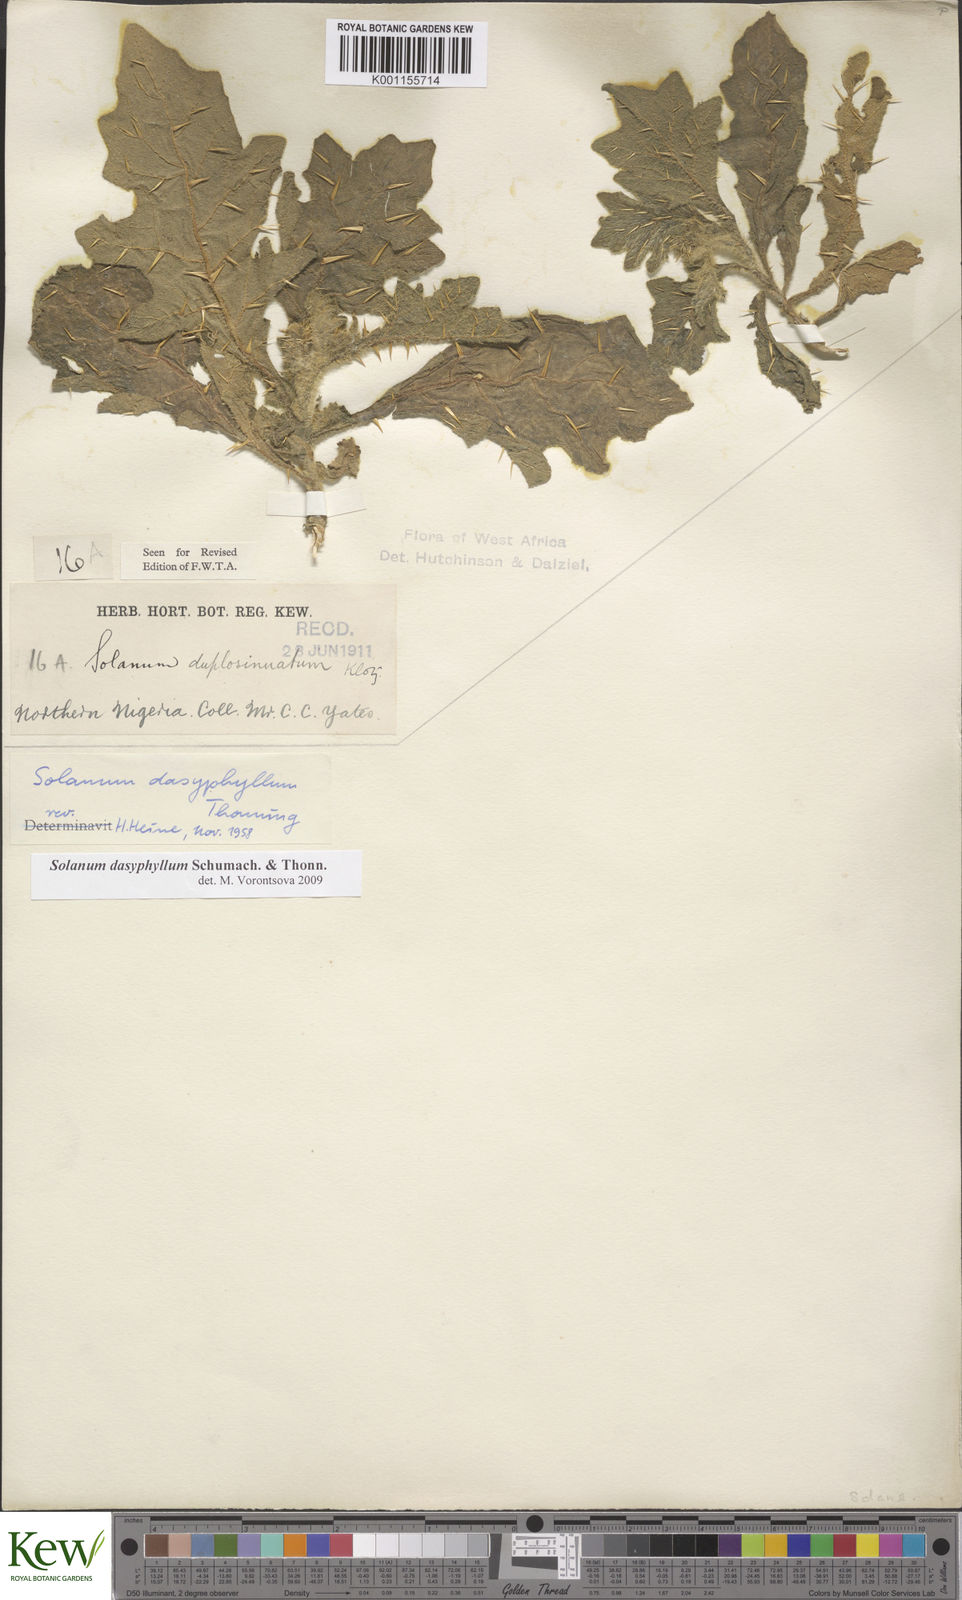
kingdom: Plantae
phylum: Tracheophyta
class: Magnoliopsida
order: Solanales
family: Solanaceae
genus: Solanum
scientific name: Solanum dasyphyllum
